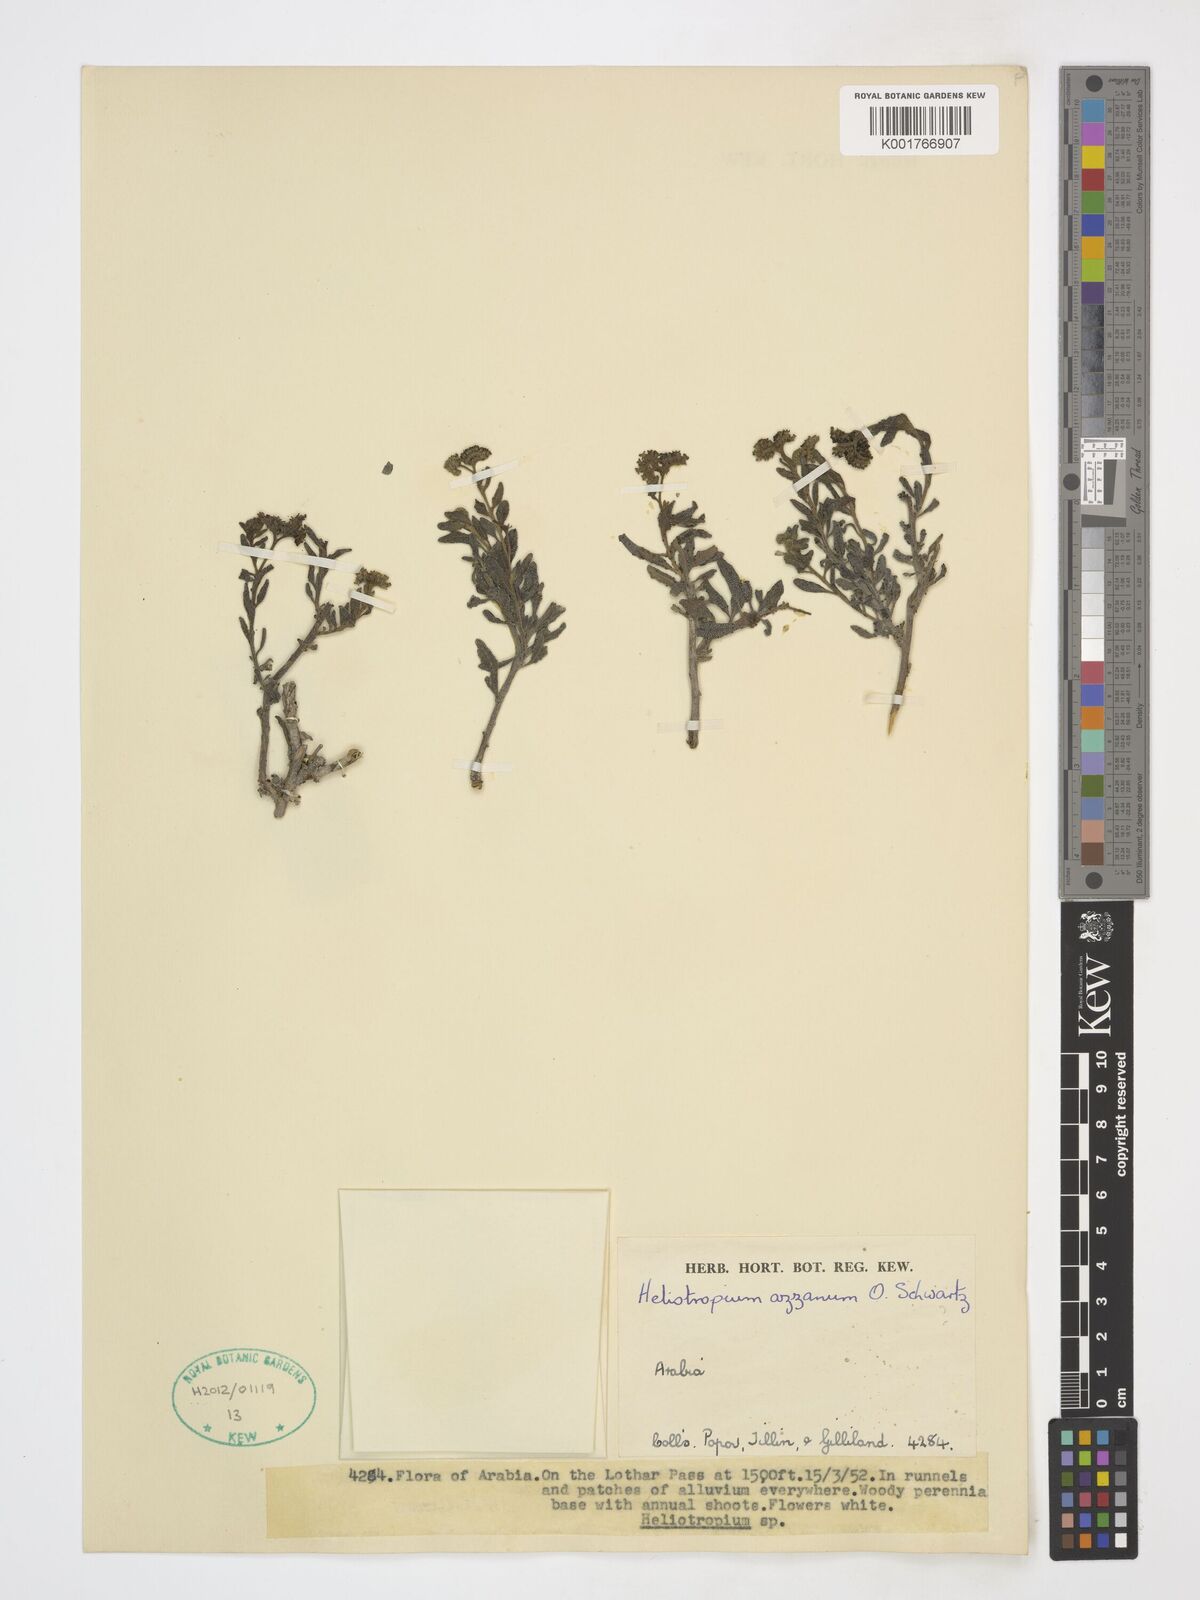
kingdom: Plantae
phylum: Tracheophyta
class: Magnoliopsida
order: Boraginales
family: Heliotropiaceae
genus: Heliotropium
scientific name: Heliotropium azzanum
